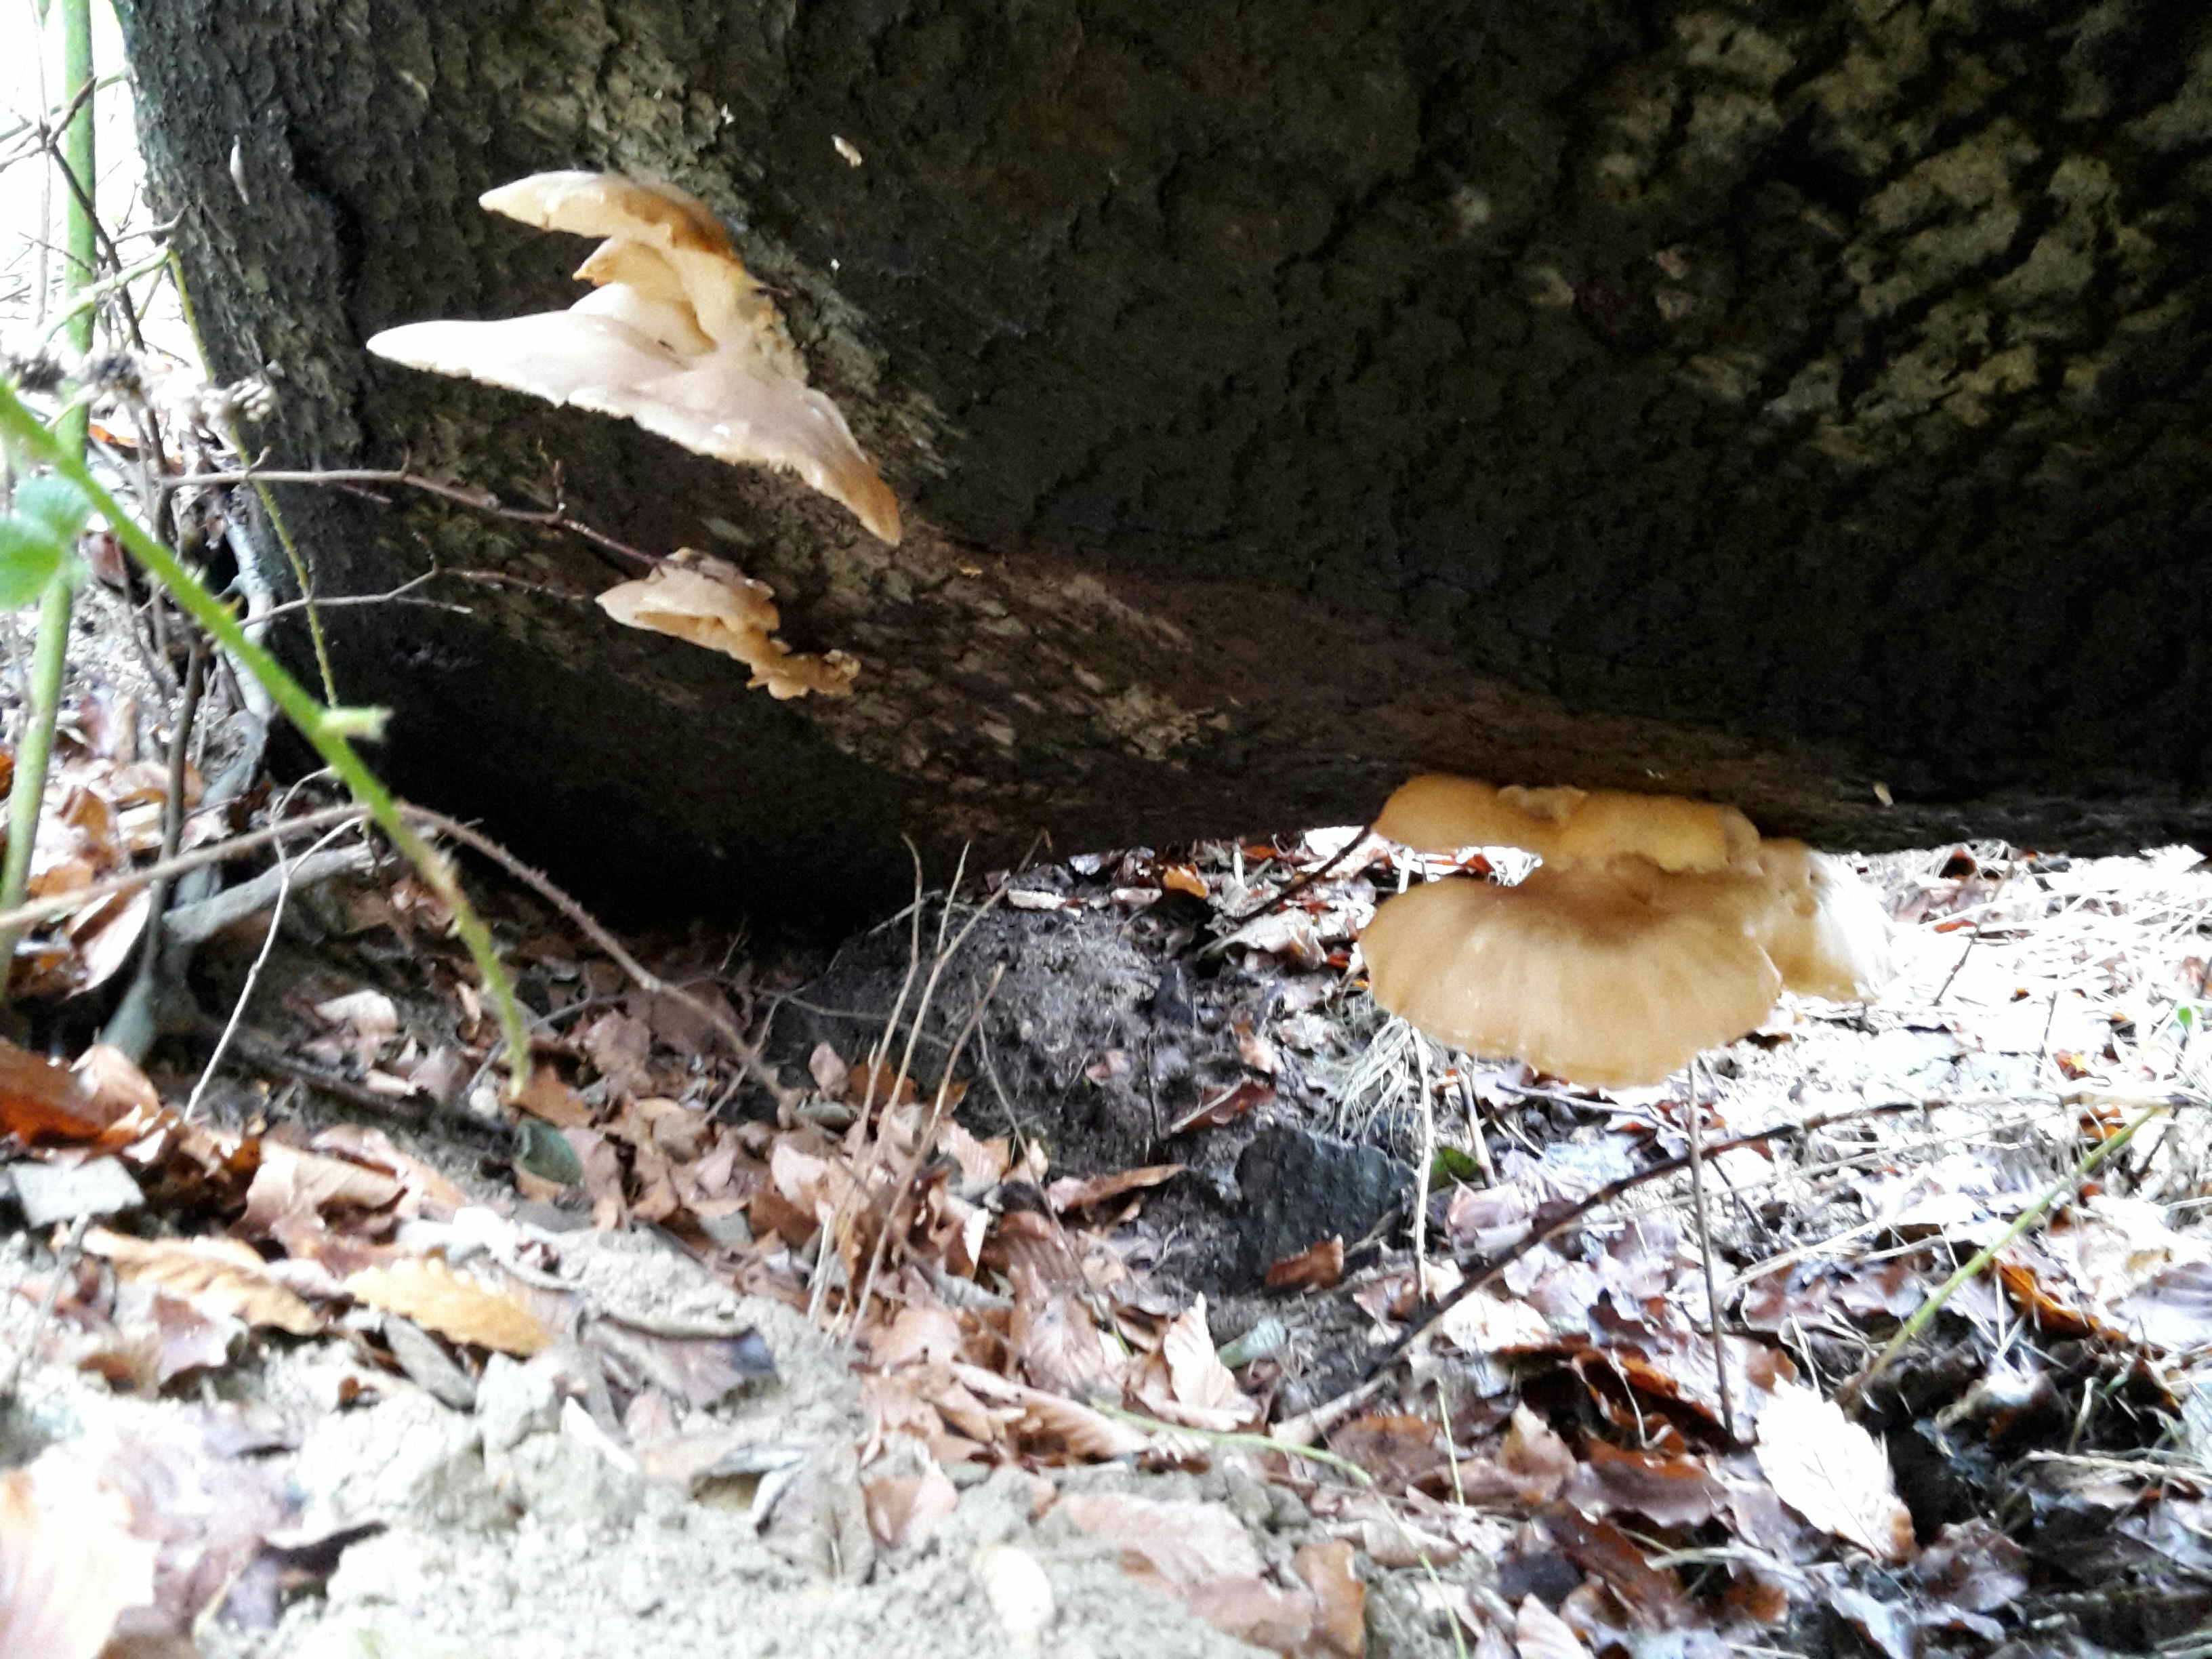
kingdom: Fungi
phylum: Basidiomycota
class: Agaricomycetes
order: Agaricales
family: Pleurotaceae
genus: Pleurotus
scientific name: Pleurotus ostreatus
